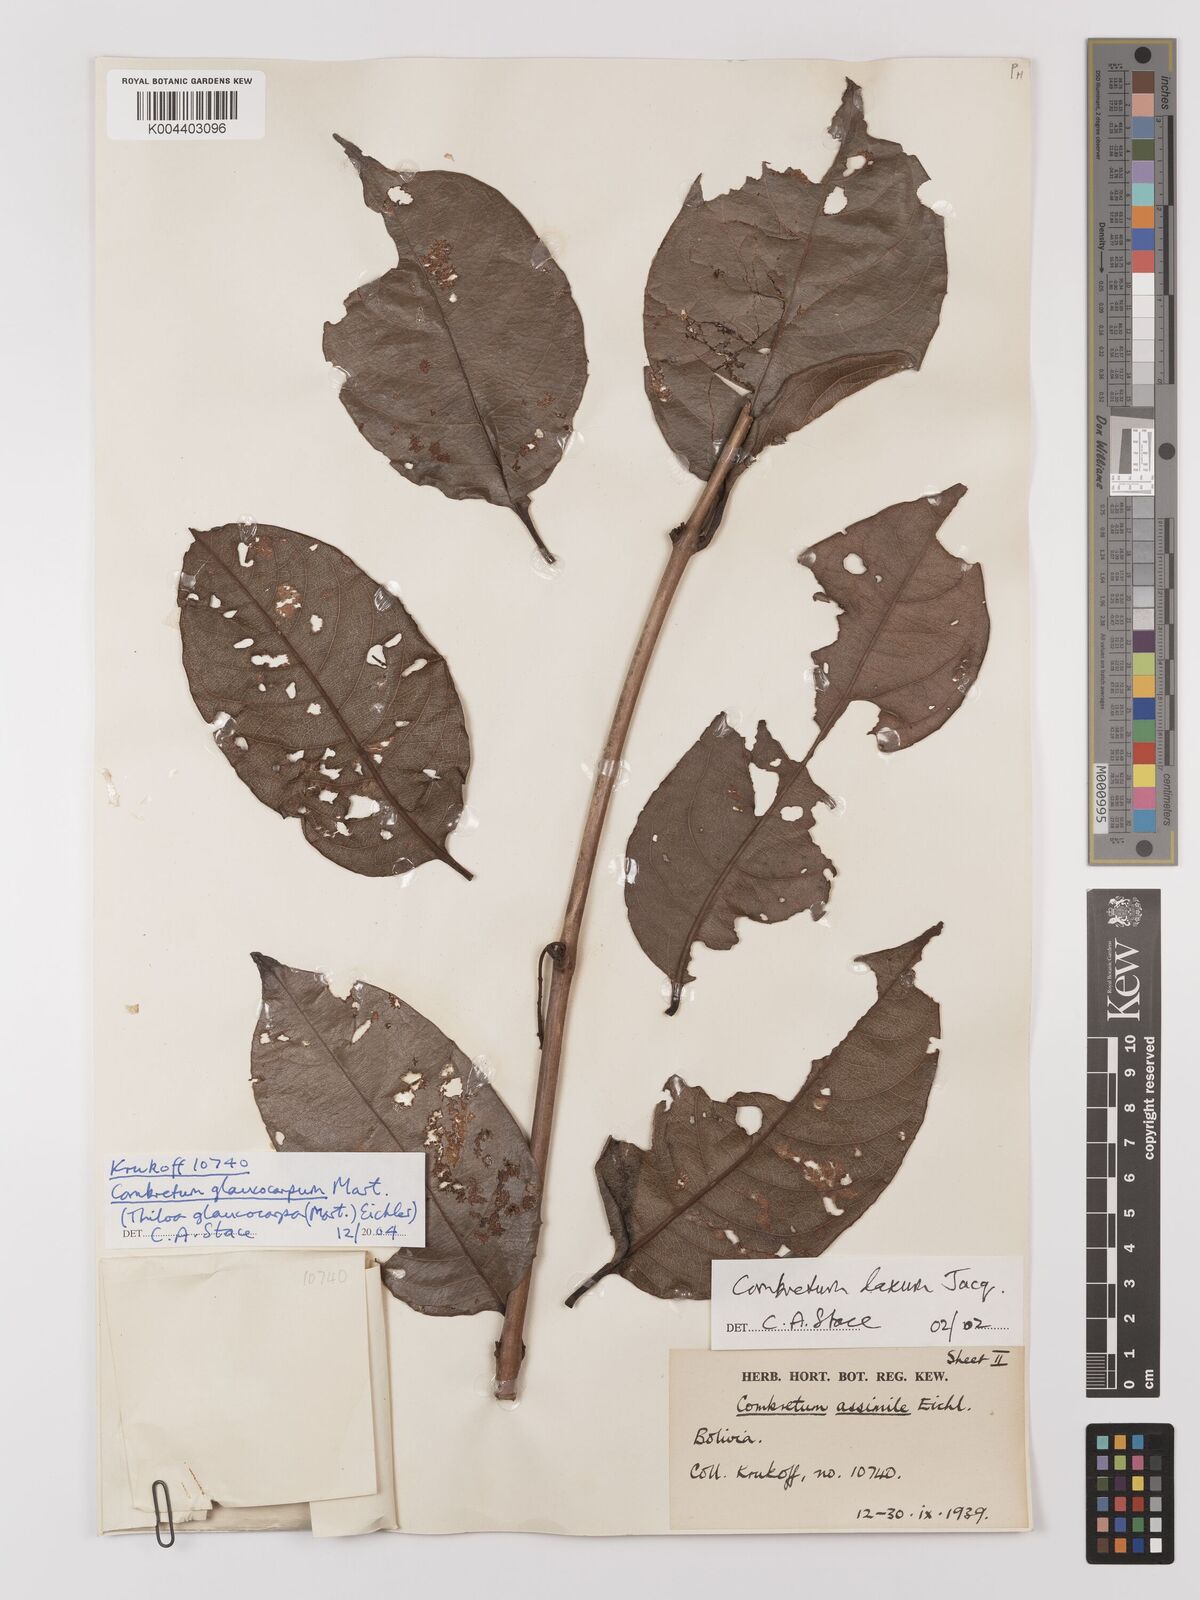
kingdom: Plantae
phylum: Tracheophyta
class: Magnoliopsida
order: Myrtales
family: Combretaceae
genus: Combretum
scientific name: Combretum glaucocarpum
